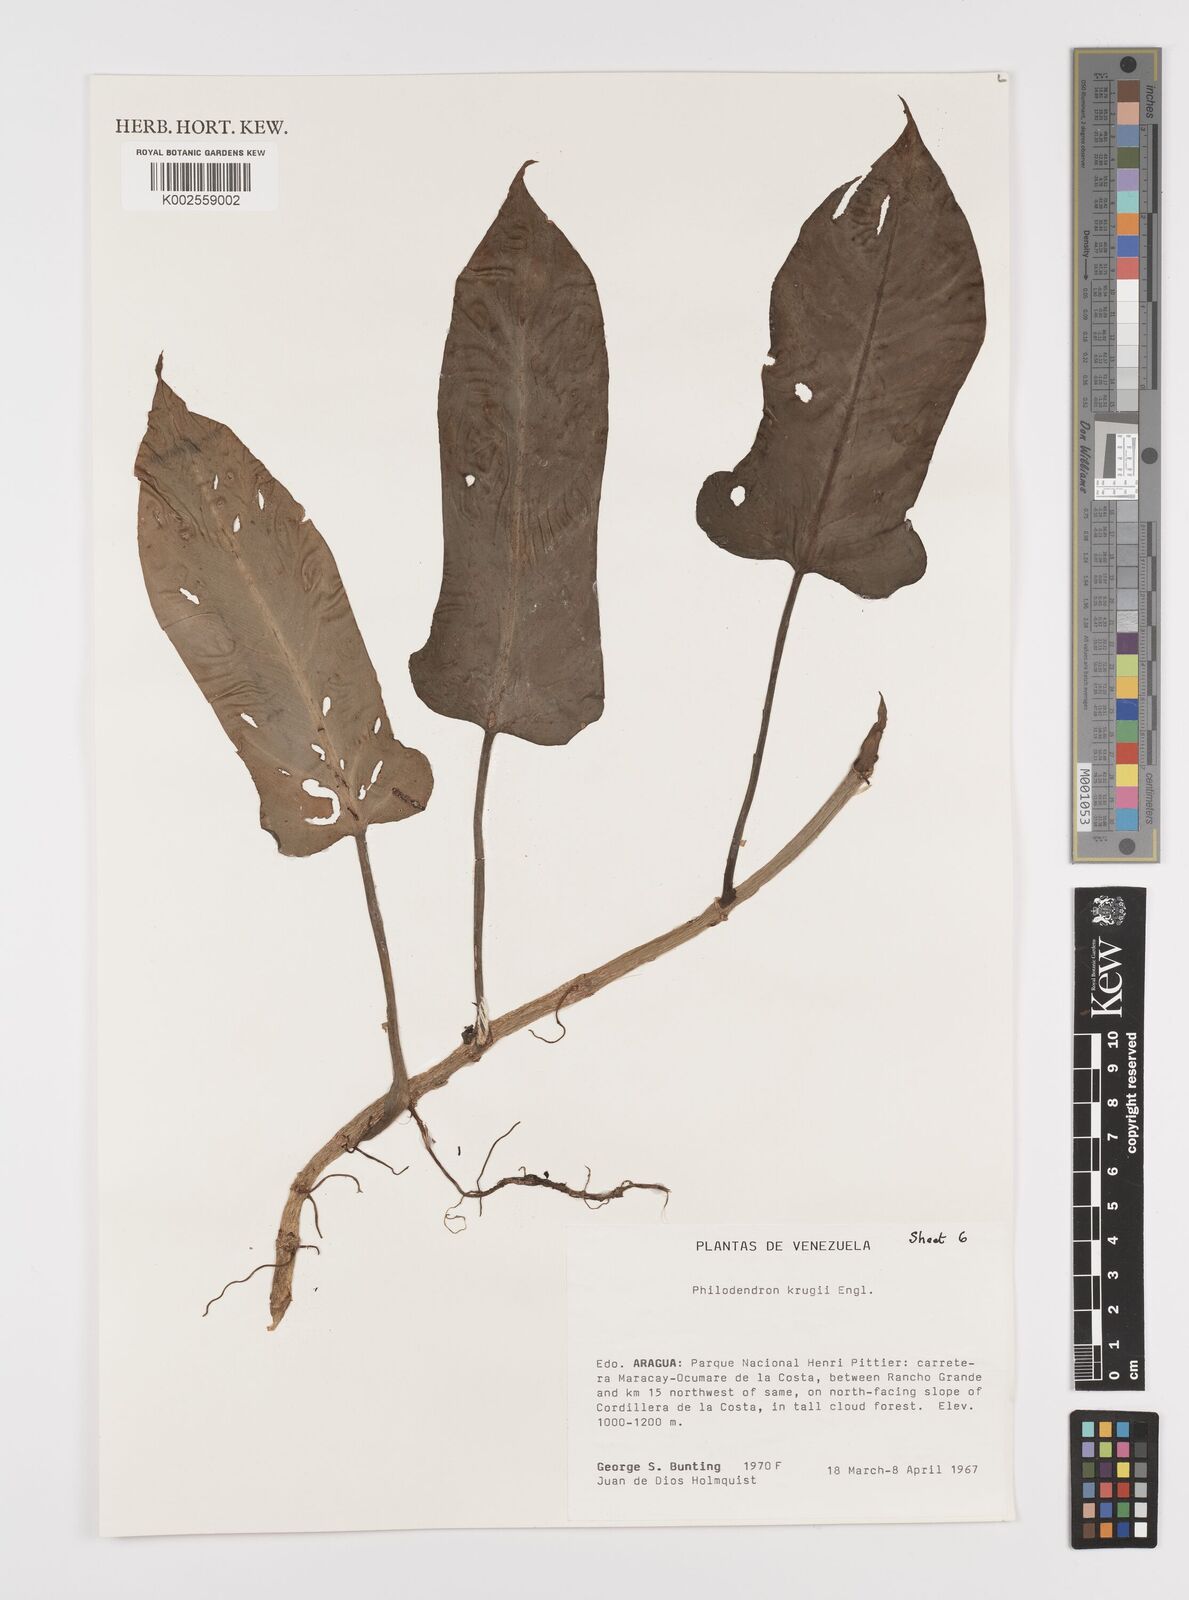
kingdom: Plantae
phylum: Tracheophyta
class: Liliopsida
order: Alismatales
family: Araceae
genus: Philodendron
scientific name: Philodendron krugii
